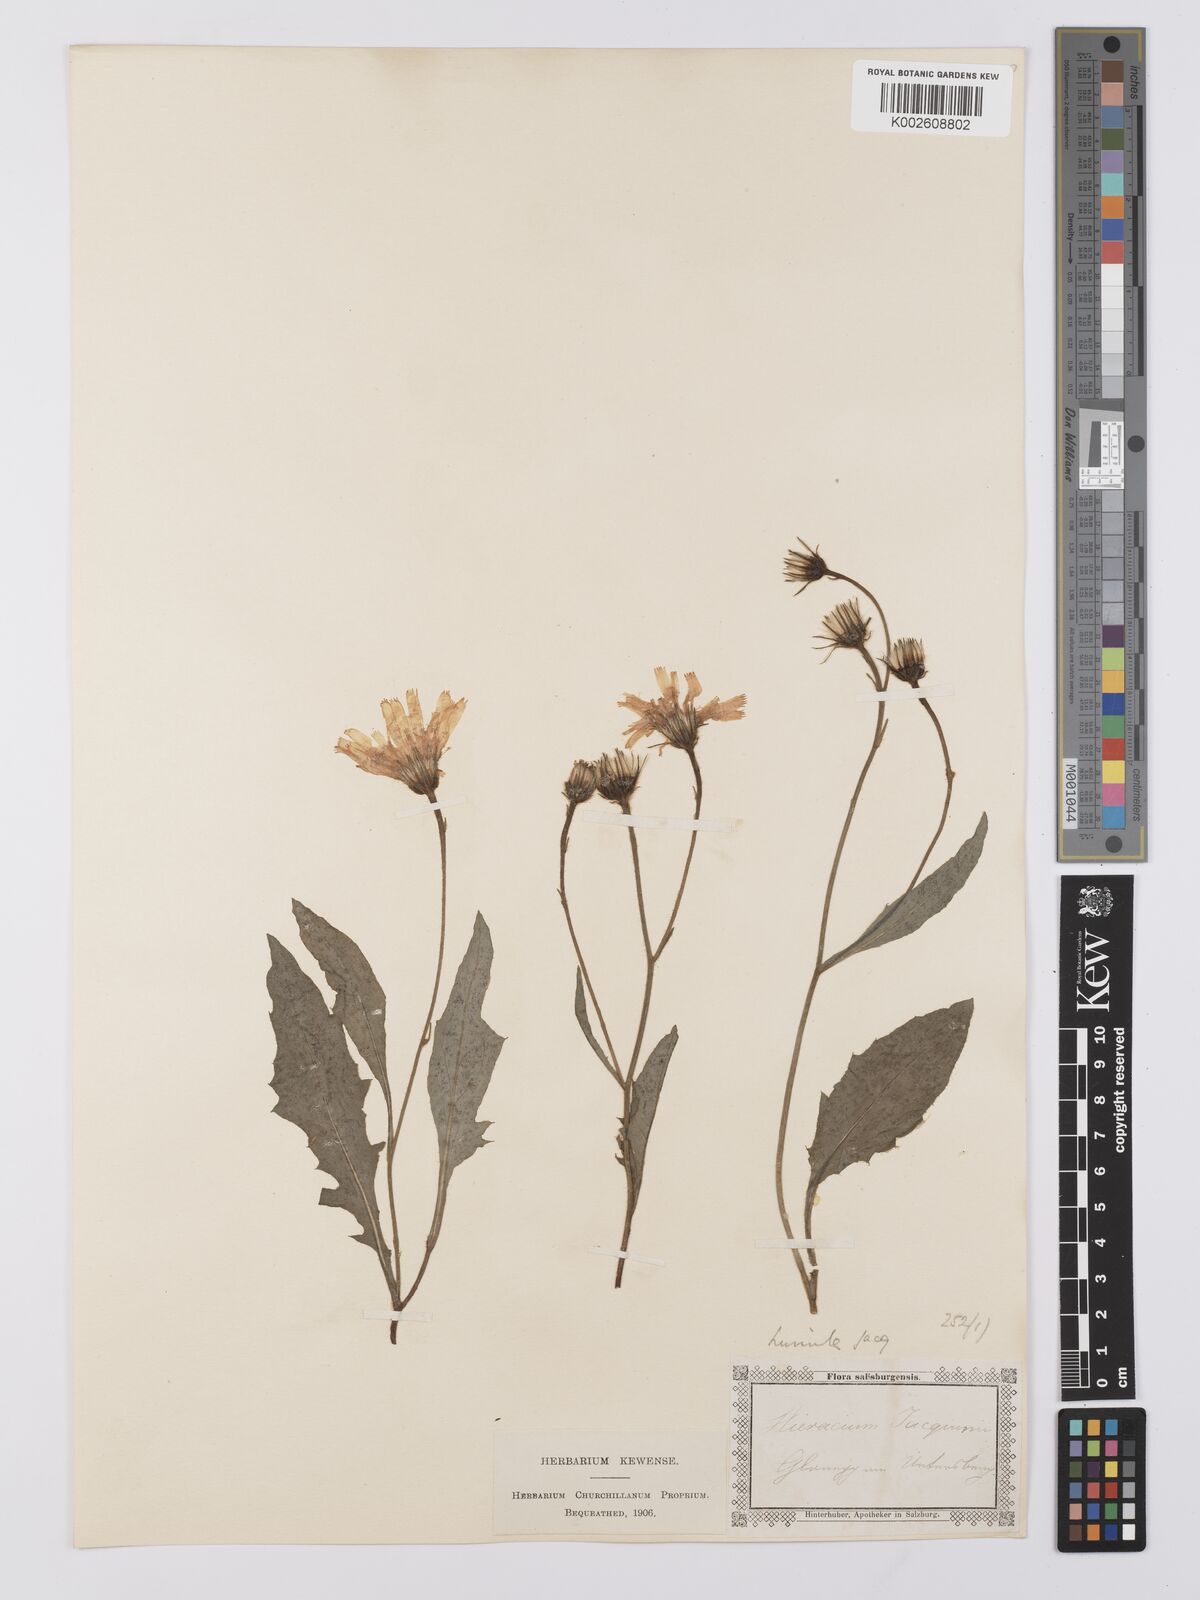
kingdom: Plantae
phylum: Tracheophyta
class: Magnoliopsida
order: Asterales
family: Asteraceae
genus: Hieracium
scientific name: Hieracium humile
